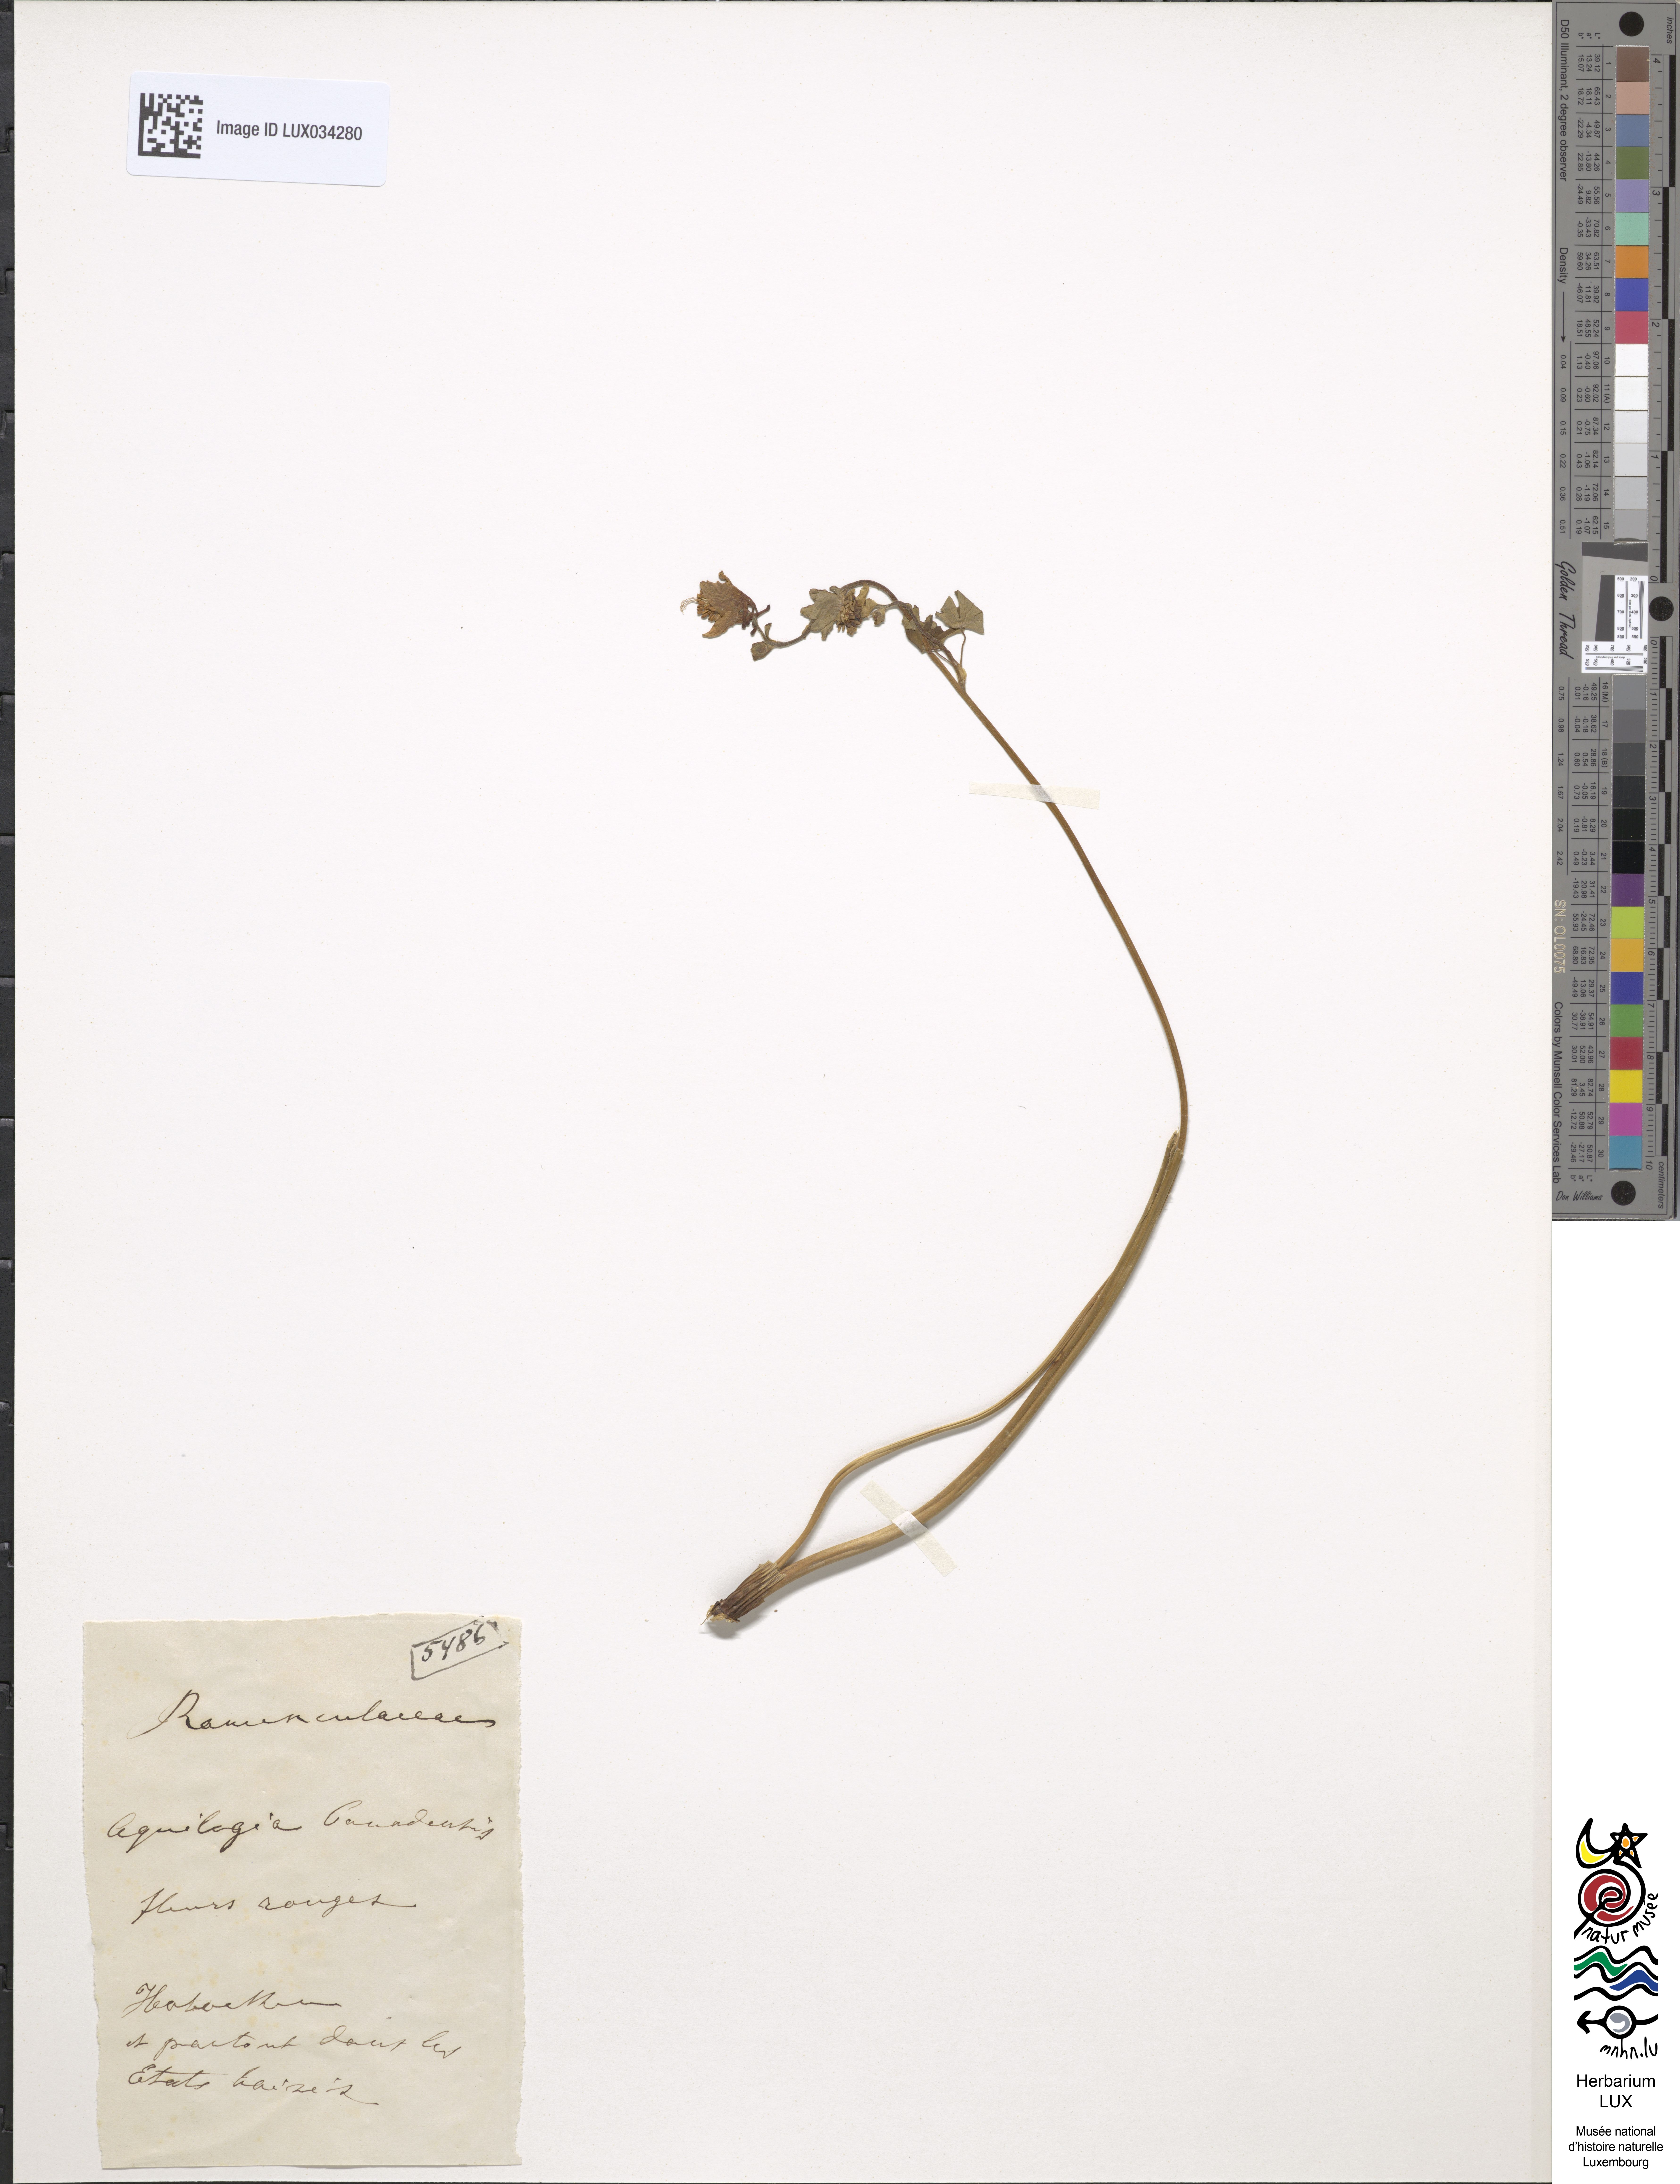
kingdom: Plantae
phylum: Tracheophyta
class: Magnoliopsida
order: Ranunculales
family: Ranunculaceae
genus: Aquilegia
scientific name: Aquilegia canadensis
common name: American columbine
